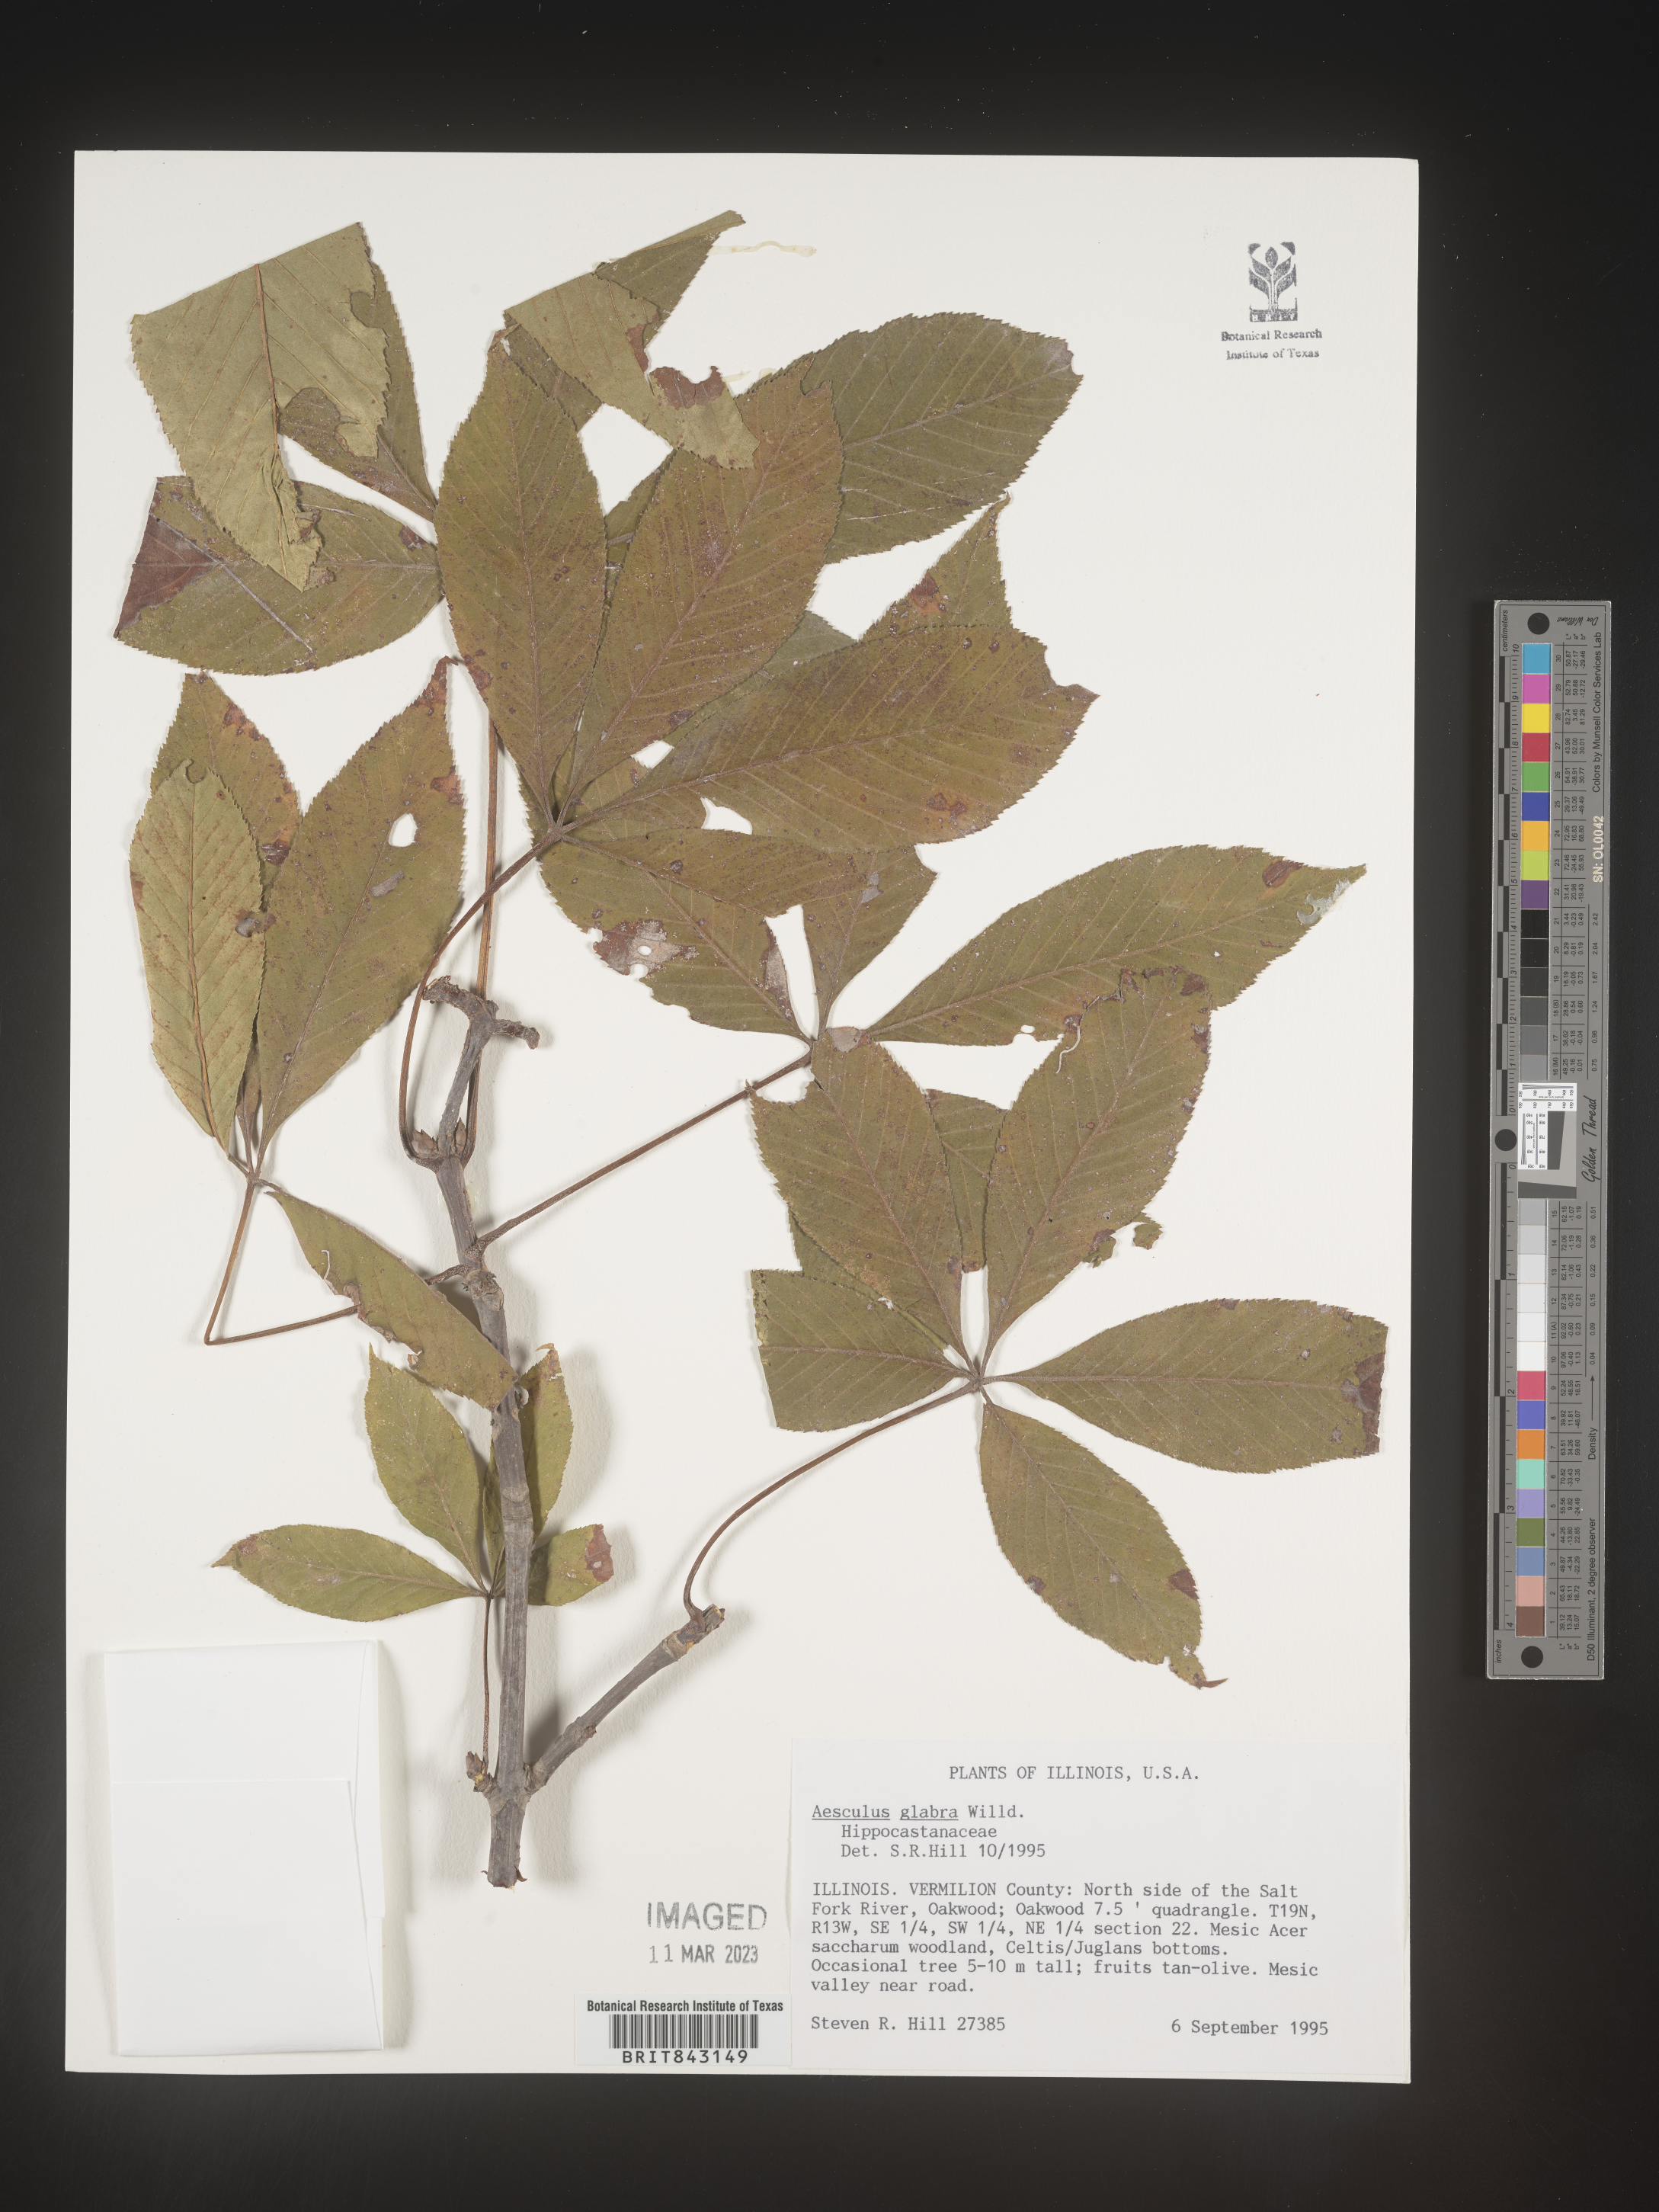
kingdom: Plantae
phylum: Tracheophyta
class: Magnoliopsida
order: Sapindales
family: Sapindaceae
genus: Aesculus
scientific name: Aesculus glabra
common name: Ohio buckeye
